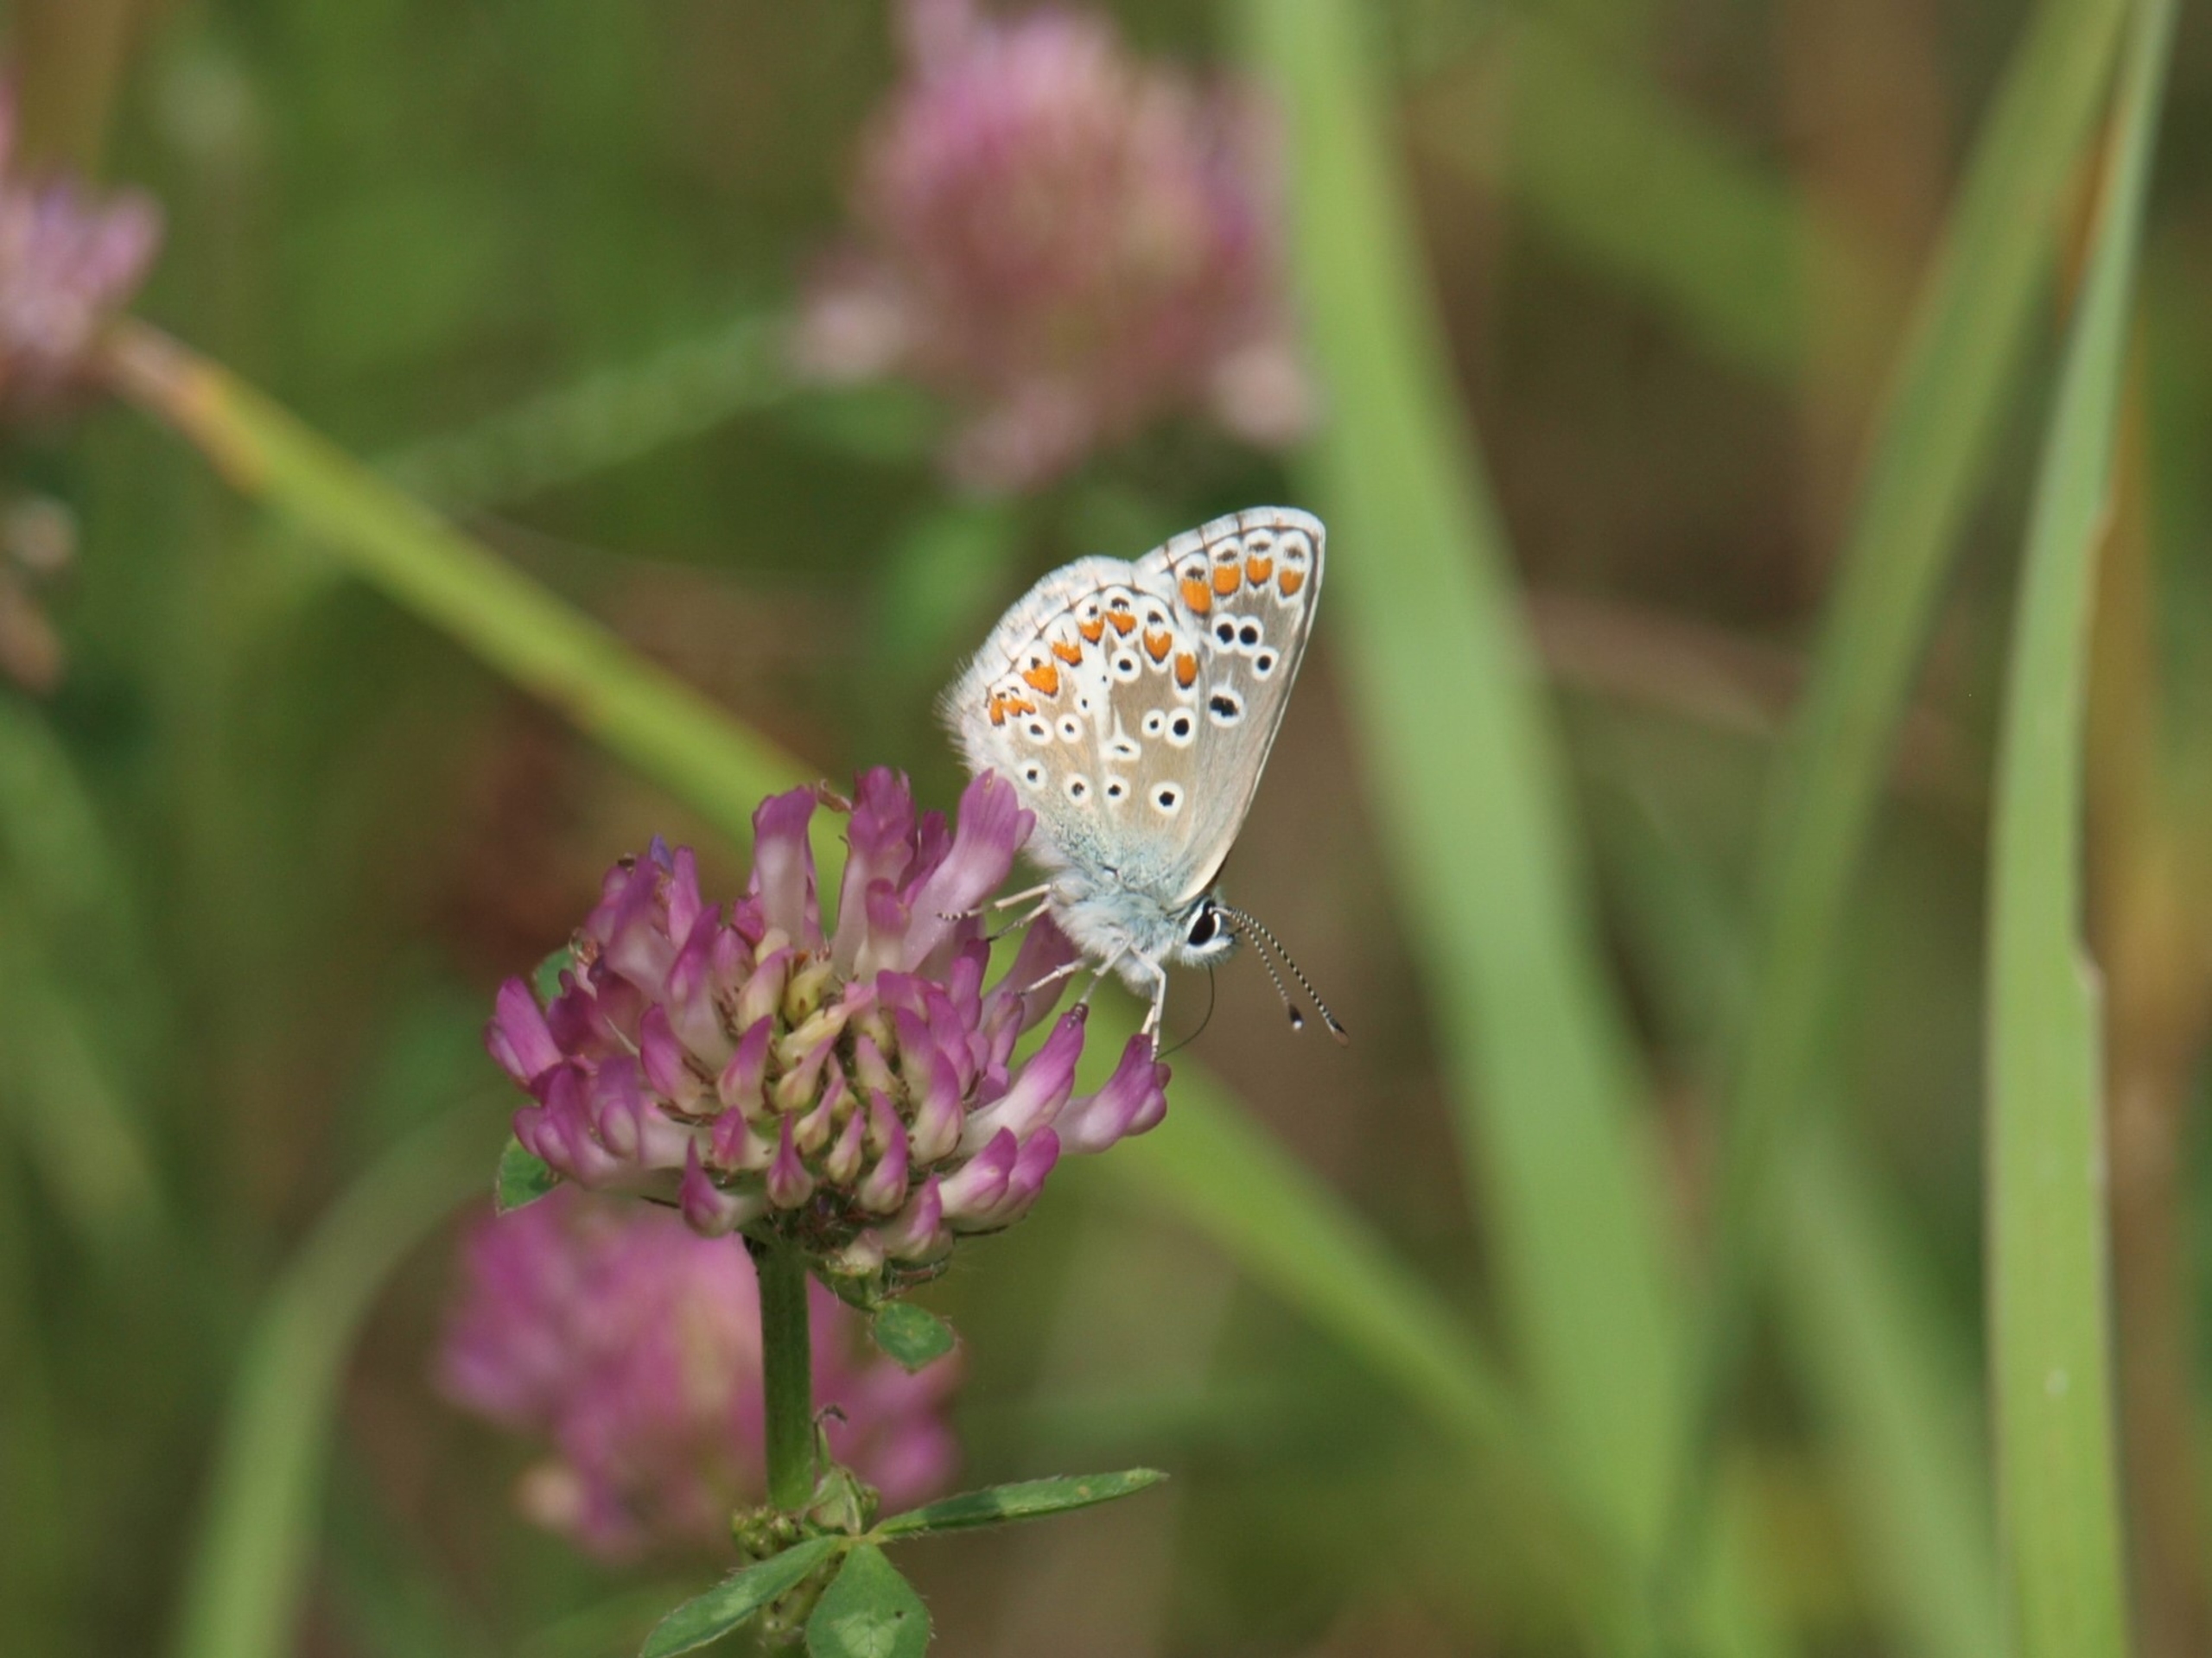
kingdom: Animalia
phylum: Arthropoda
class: Insecta
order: Lepidoptera
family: Lycaenidae
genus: Aricia
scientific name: Aricia agestis
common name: Rødplettet blåfugl
